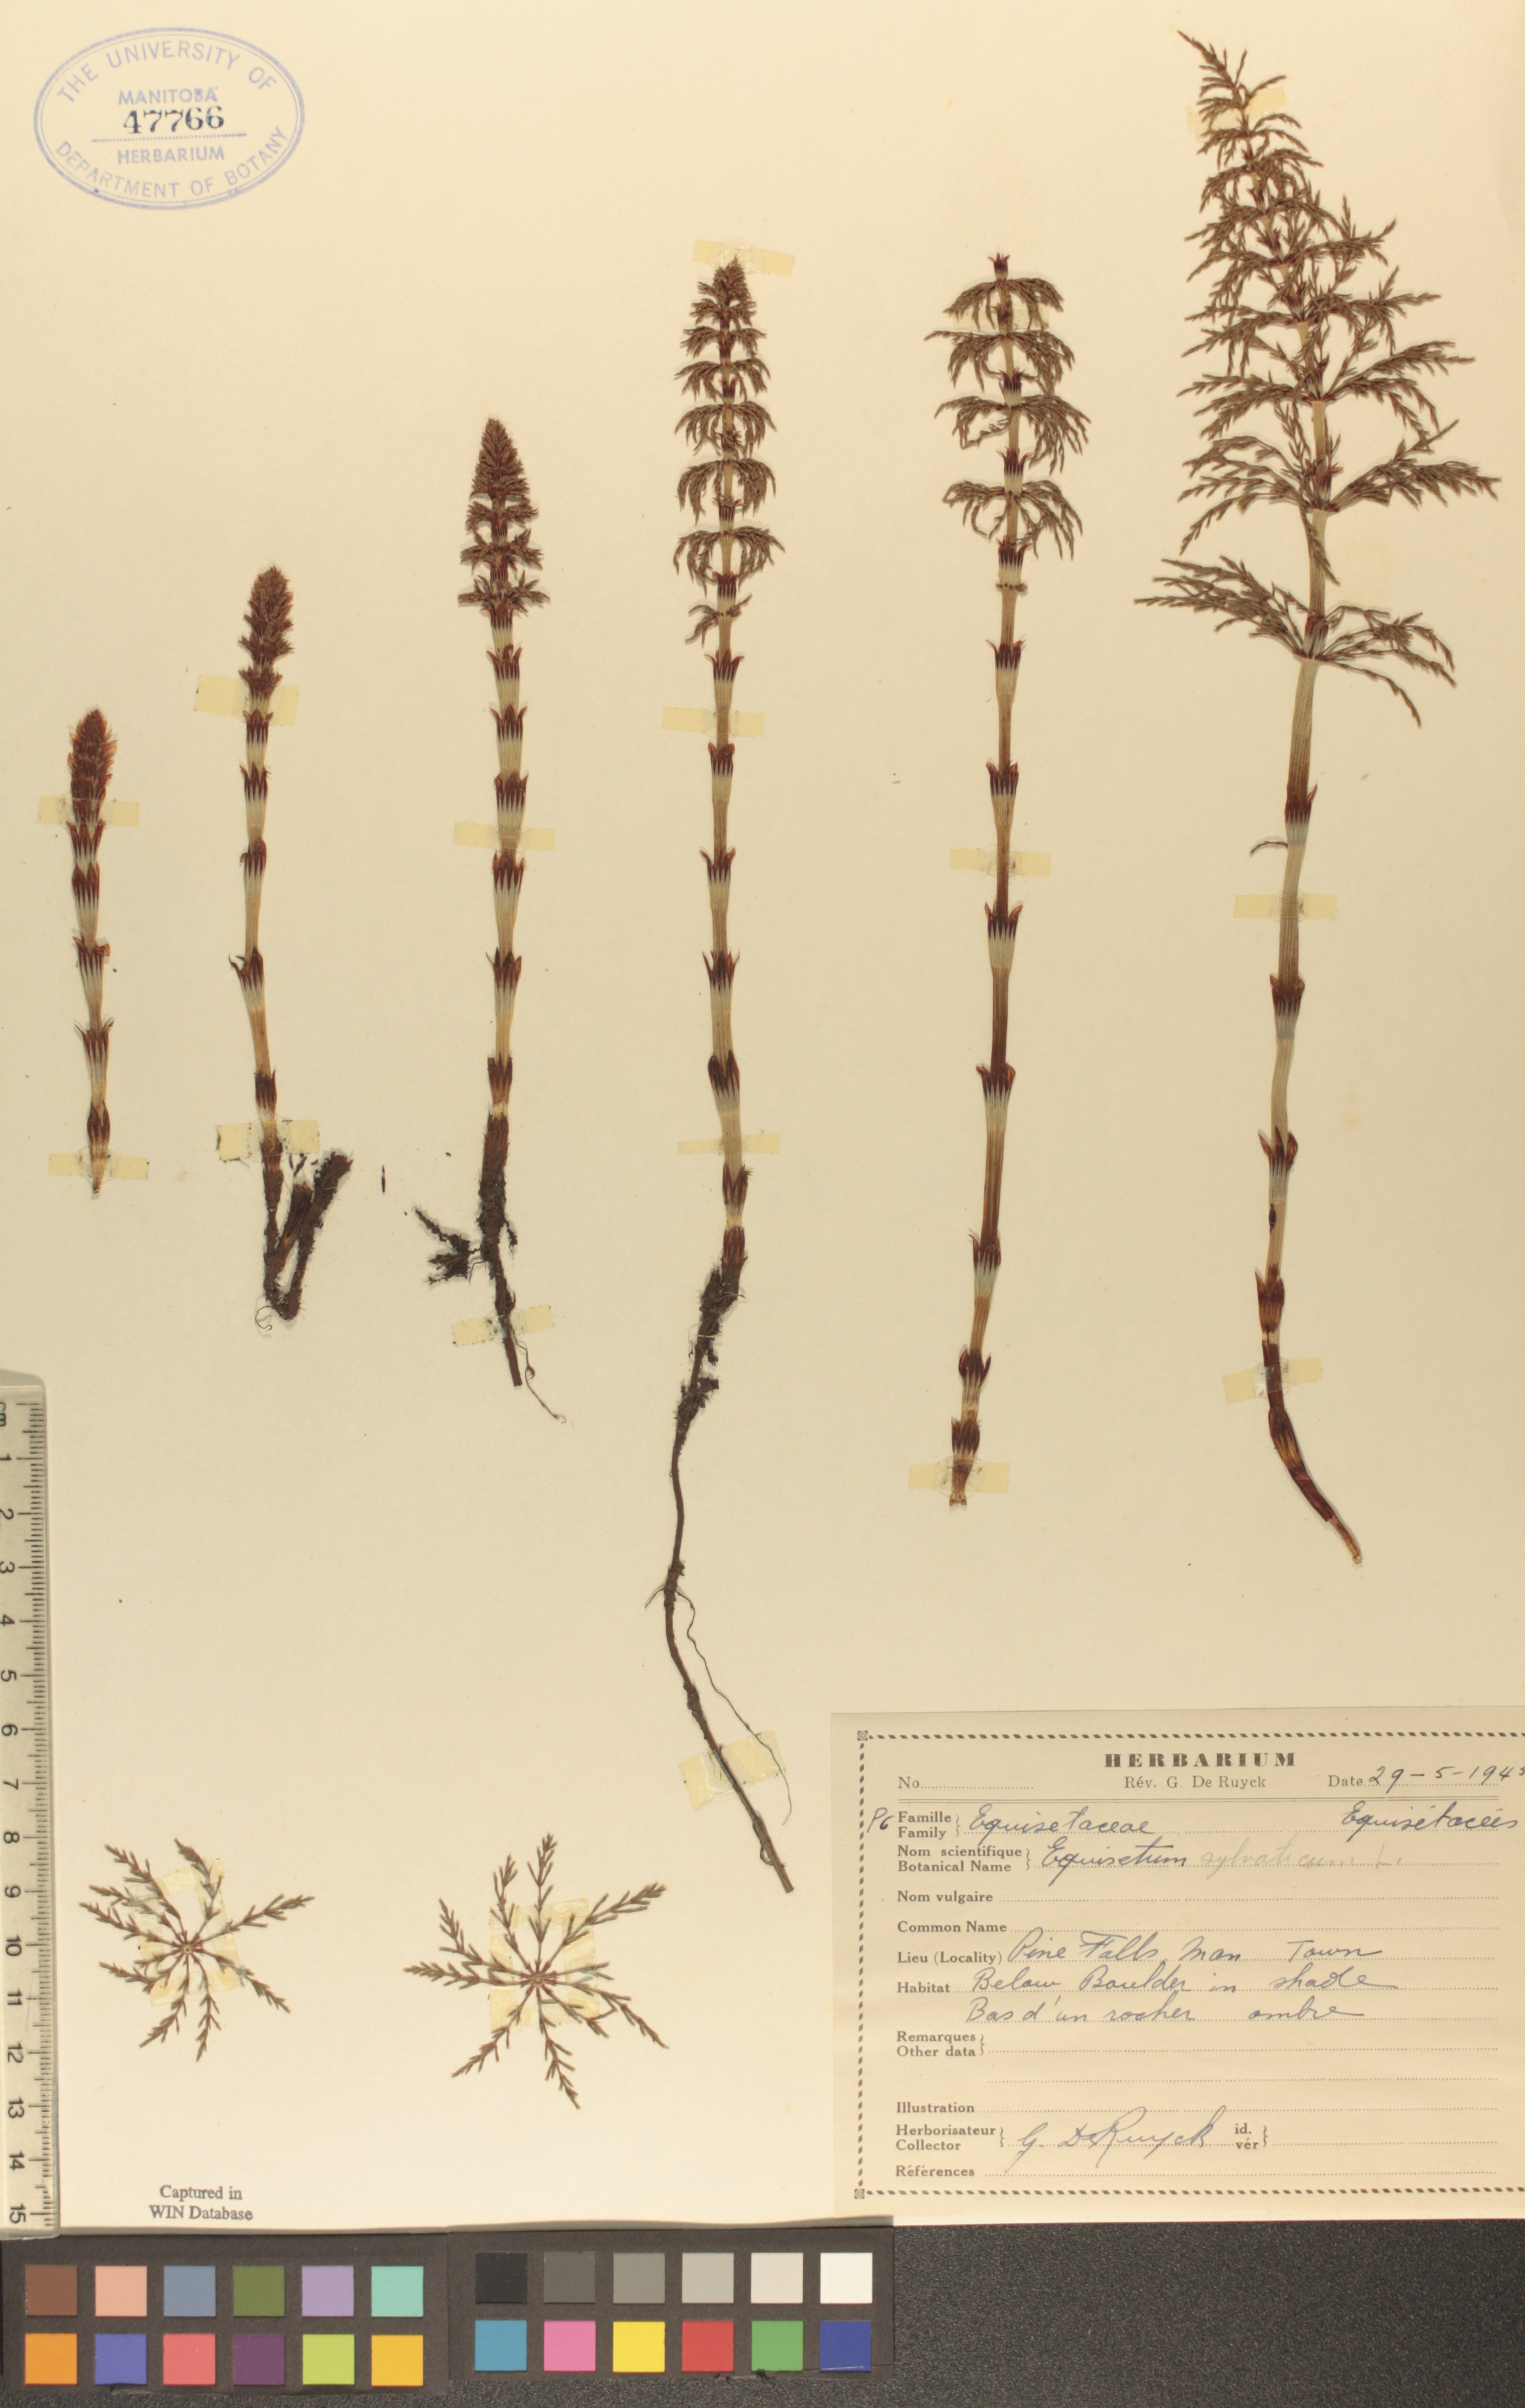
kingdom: Plantae
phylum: Tracheophyta
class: Polypodiopsida
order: Equisetales
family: Equisetaceae
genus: Equisetum
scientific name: Equisetum sylvaticum
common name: Wood horsetail
